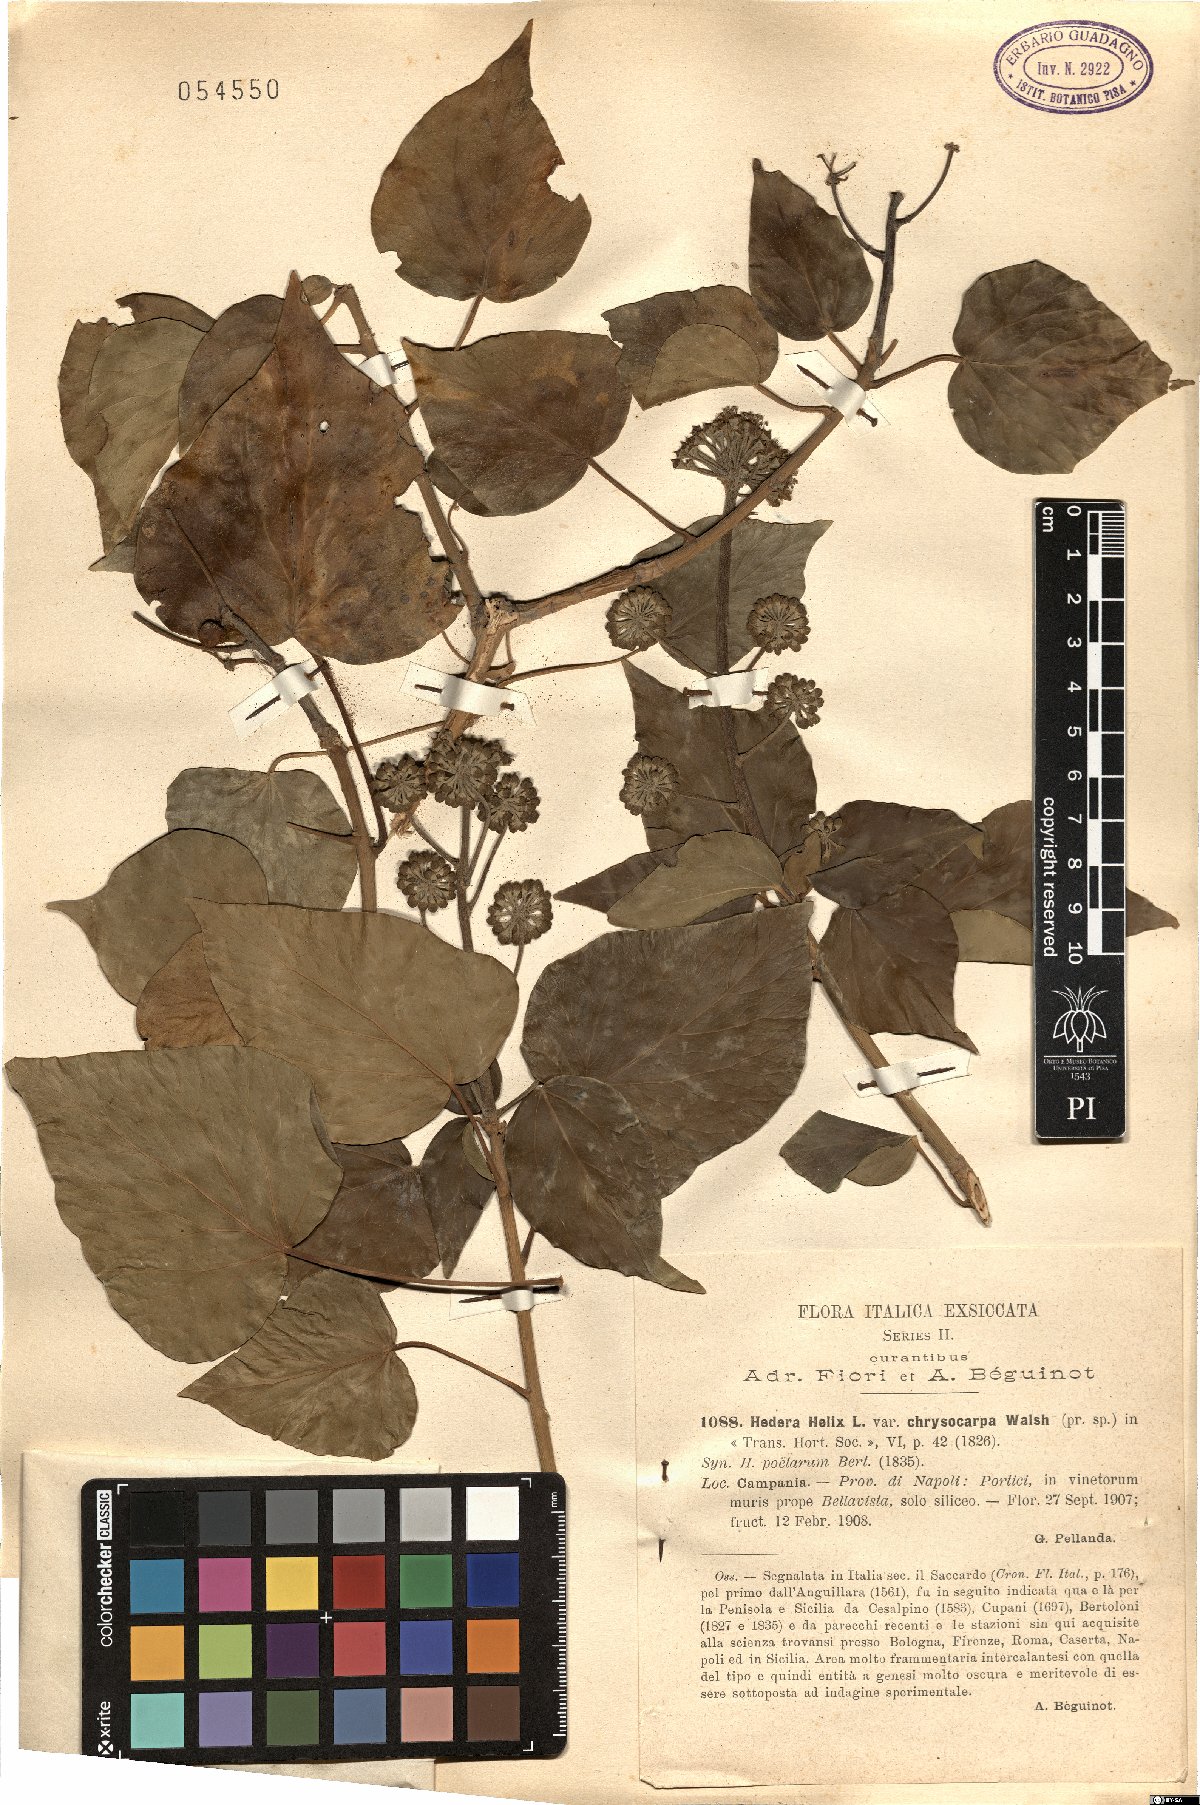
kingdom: Plantae
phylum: Tracheophyta
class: Magnoliopsida
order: Apiales
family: Araliaceae
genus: Hedera
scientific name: Hedera helix
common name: Ivy
